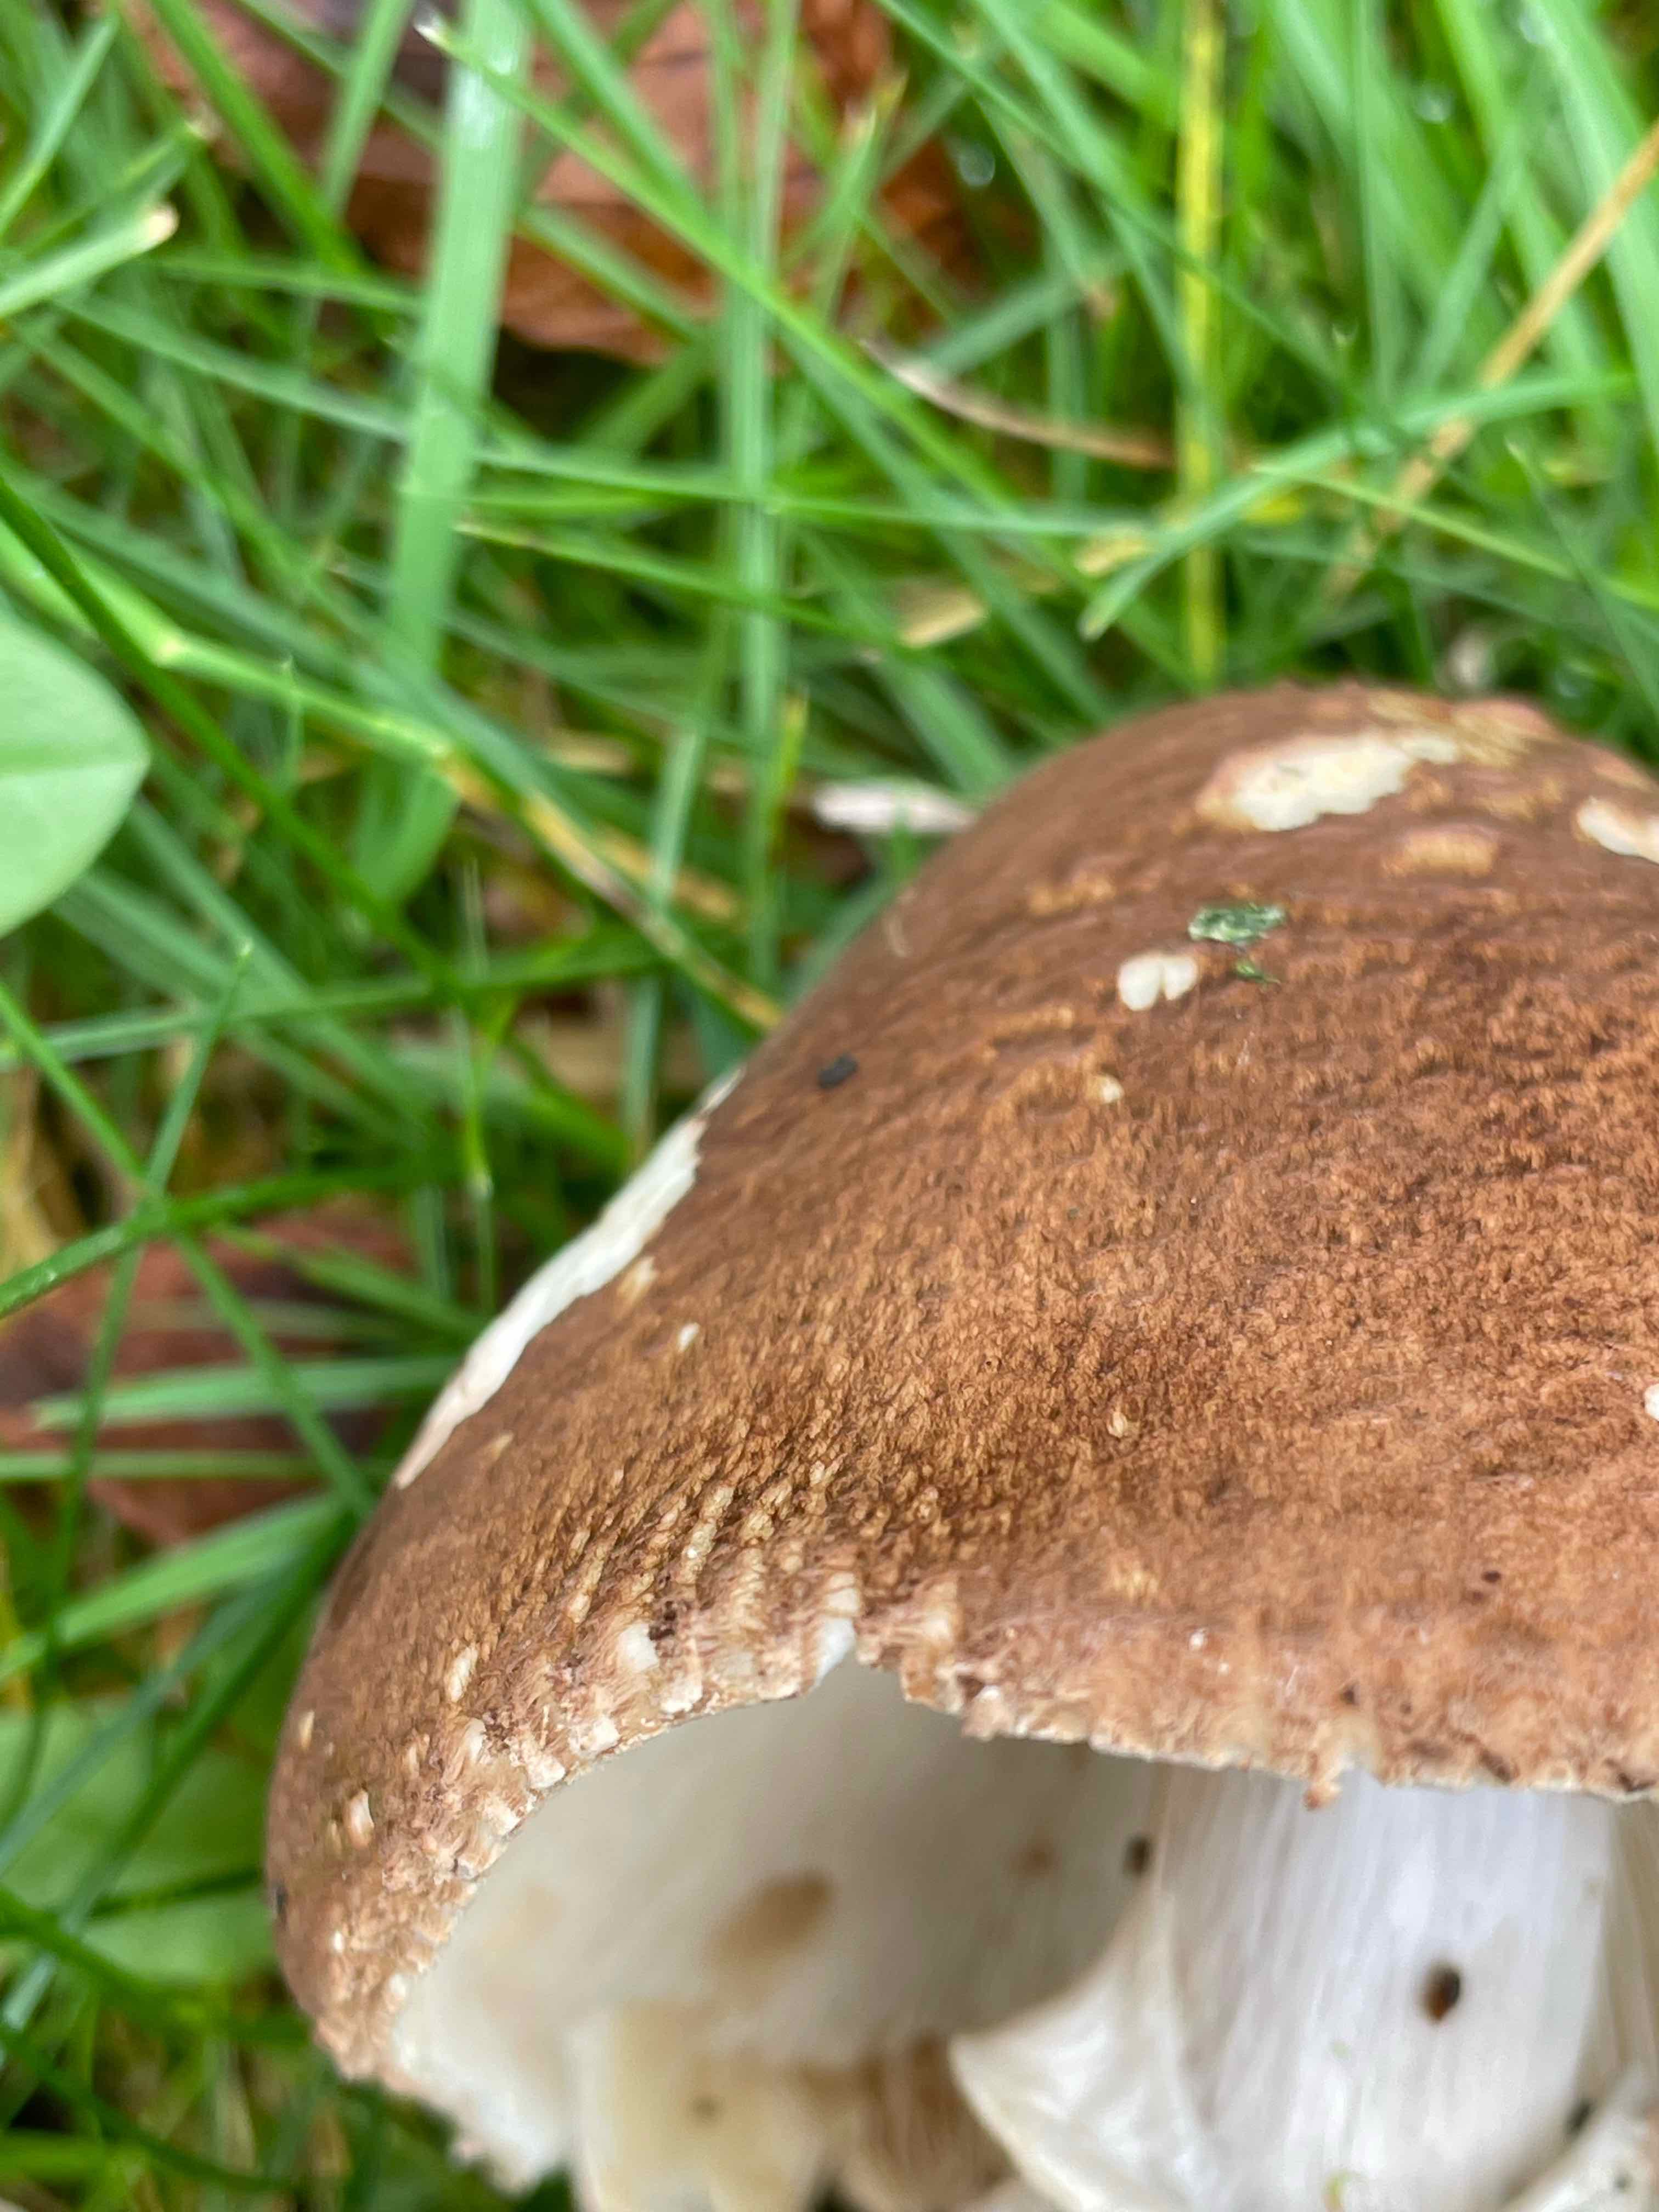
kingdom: Fungi
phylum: Basidiomycota
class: Agaricomycetes
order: Agaricales
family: Agaricaceae
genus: Echinoderma
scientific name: Echinoderma asperum
